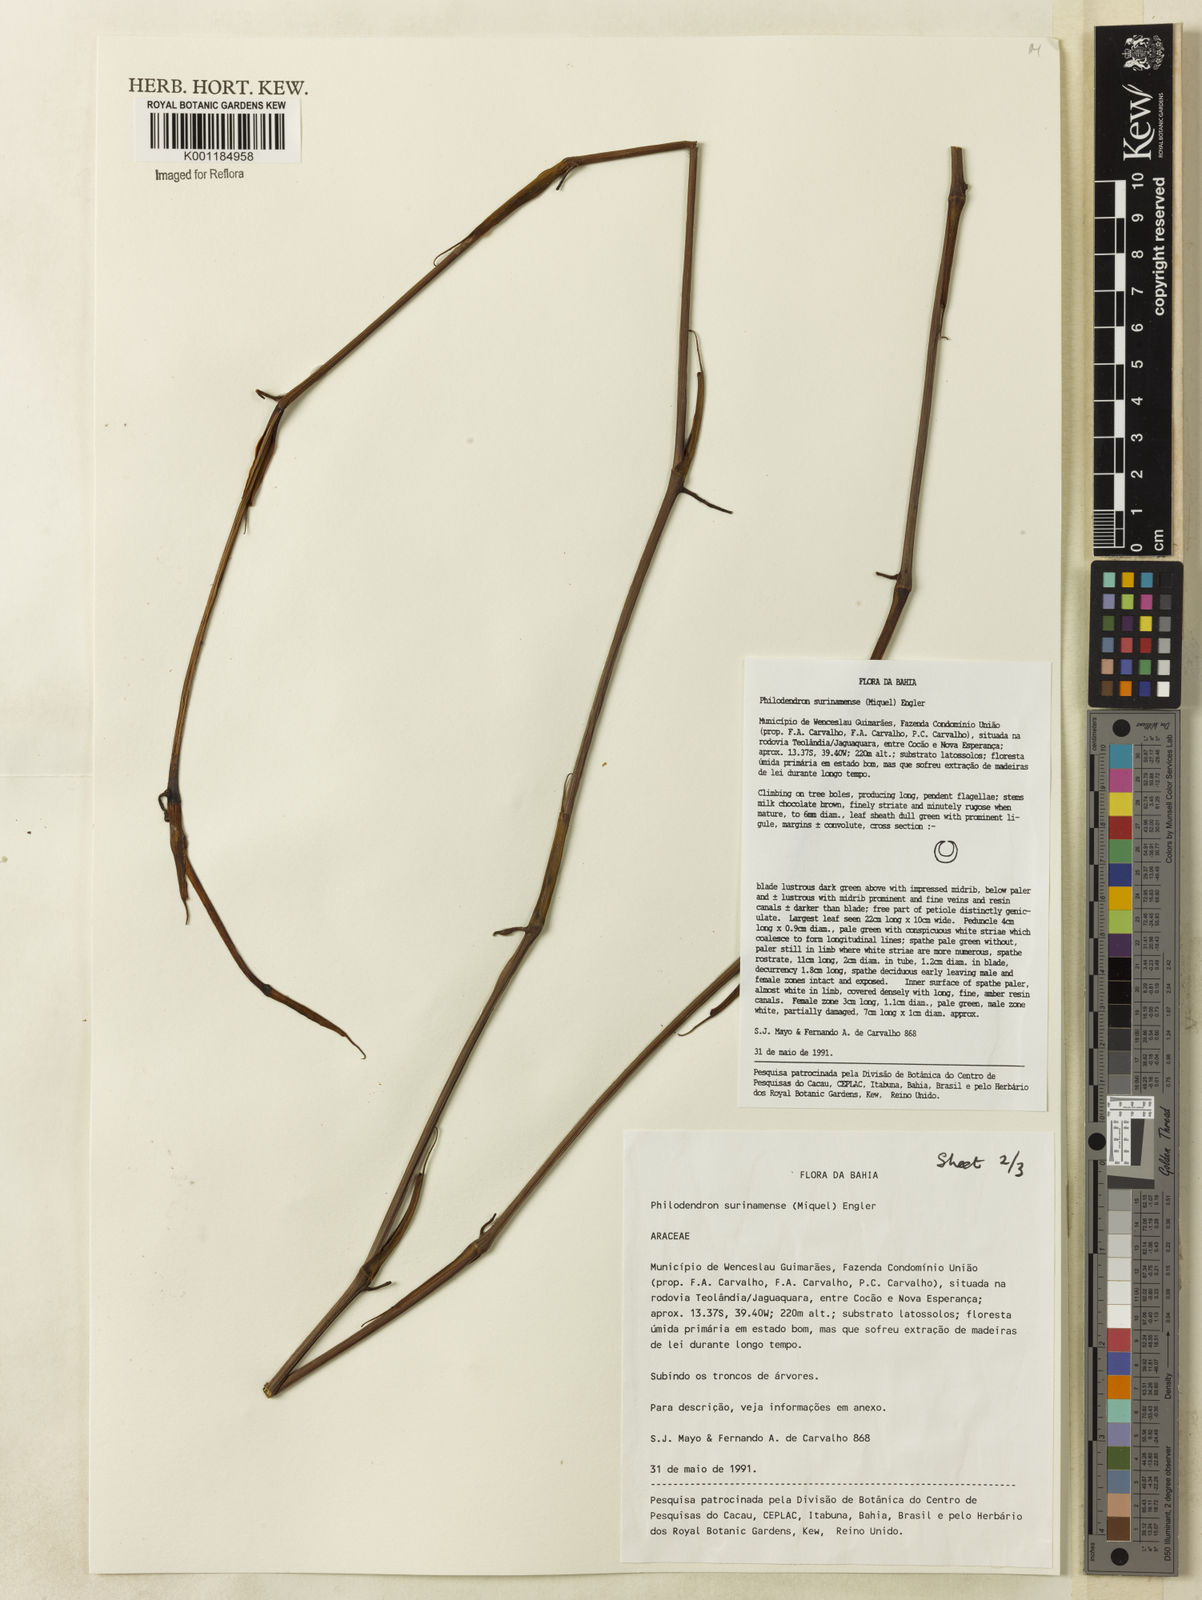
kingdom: Plantae
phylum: Tracheophyta
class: Liliopsida
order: Alismatales
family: Araceae
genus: Philodendron
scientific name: Philodendron surinamense
